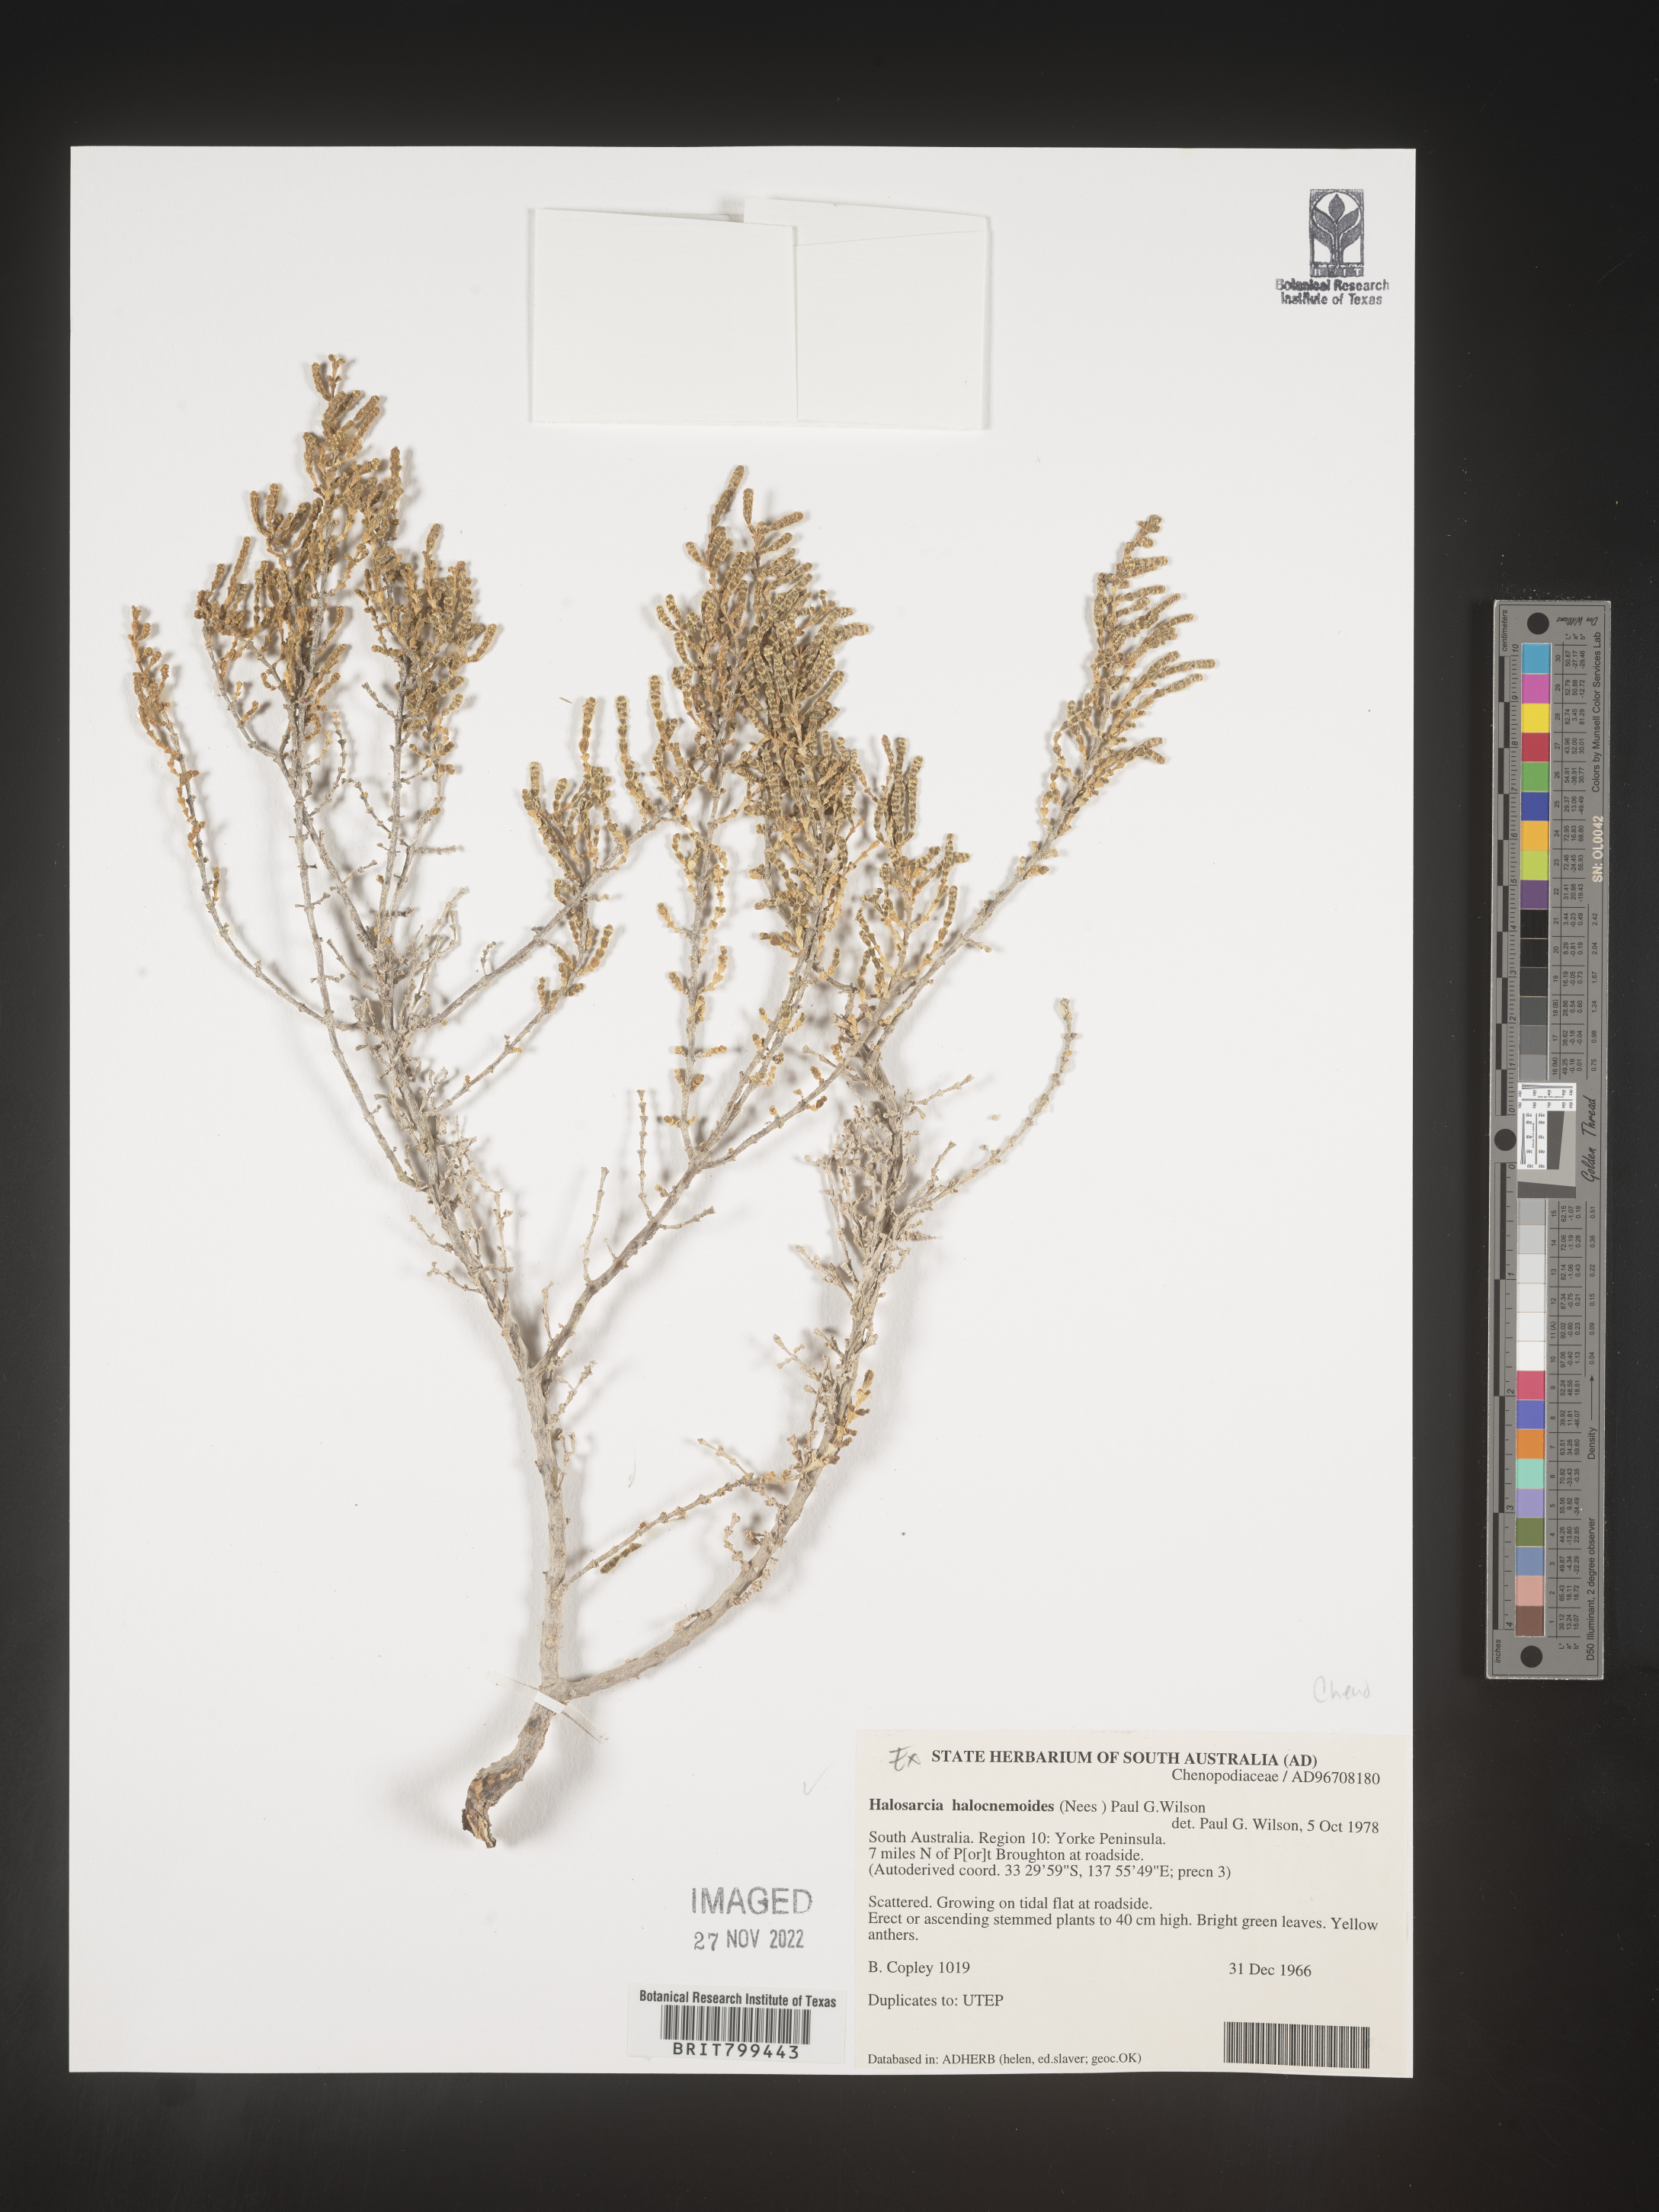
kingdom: Plantae
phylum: Tracheophyta
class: Magnoliopsida
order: Caryophyllales
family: Amaranthaceae
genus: Tecticornia
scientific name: Tecticornia
